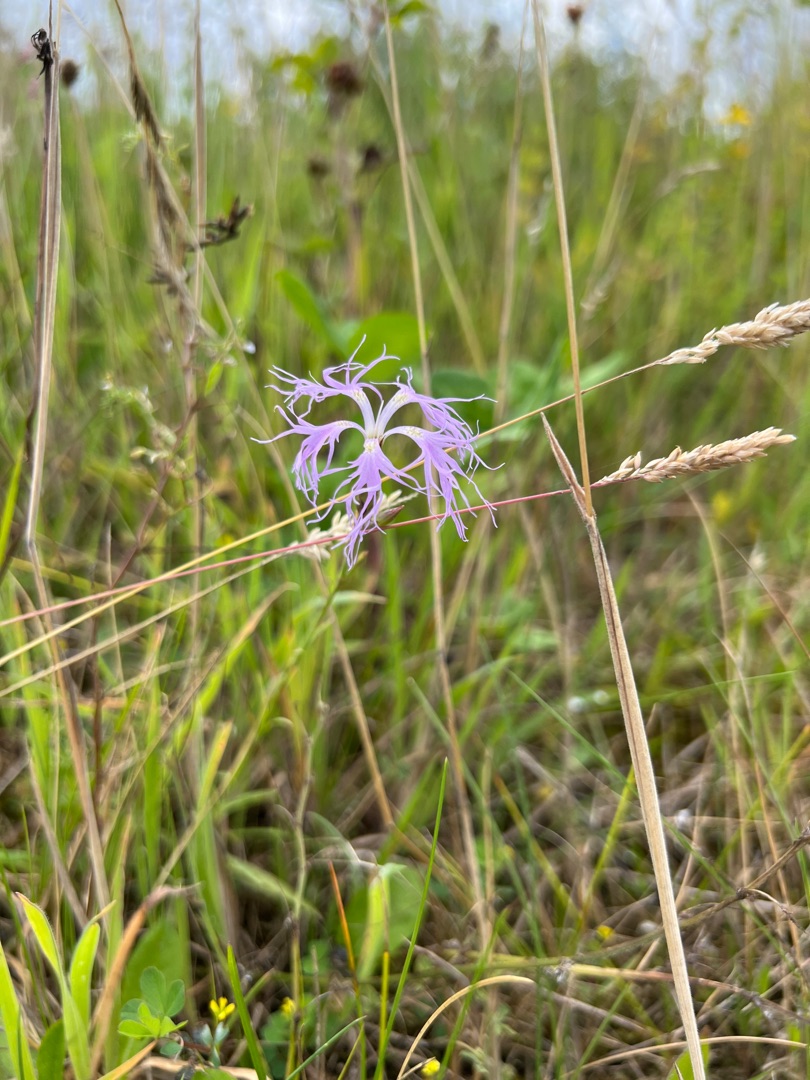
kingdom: Plantae
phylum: Tracheophyta
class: Magnoliopsida
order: Caryophyllales
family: Caryophyllaceae
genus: Dianthus
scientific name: Dianthus superbus
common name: Strand-nellike
